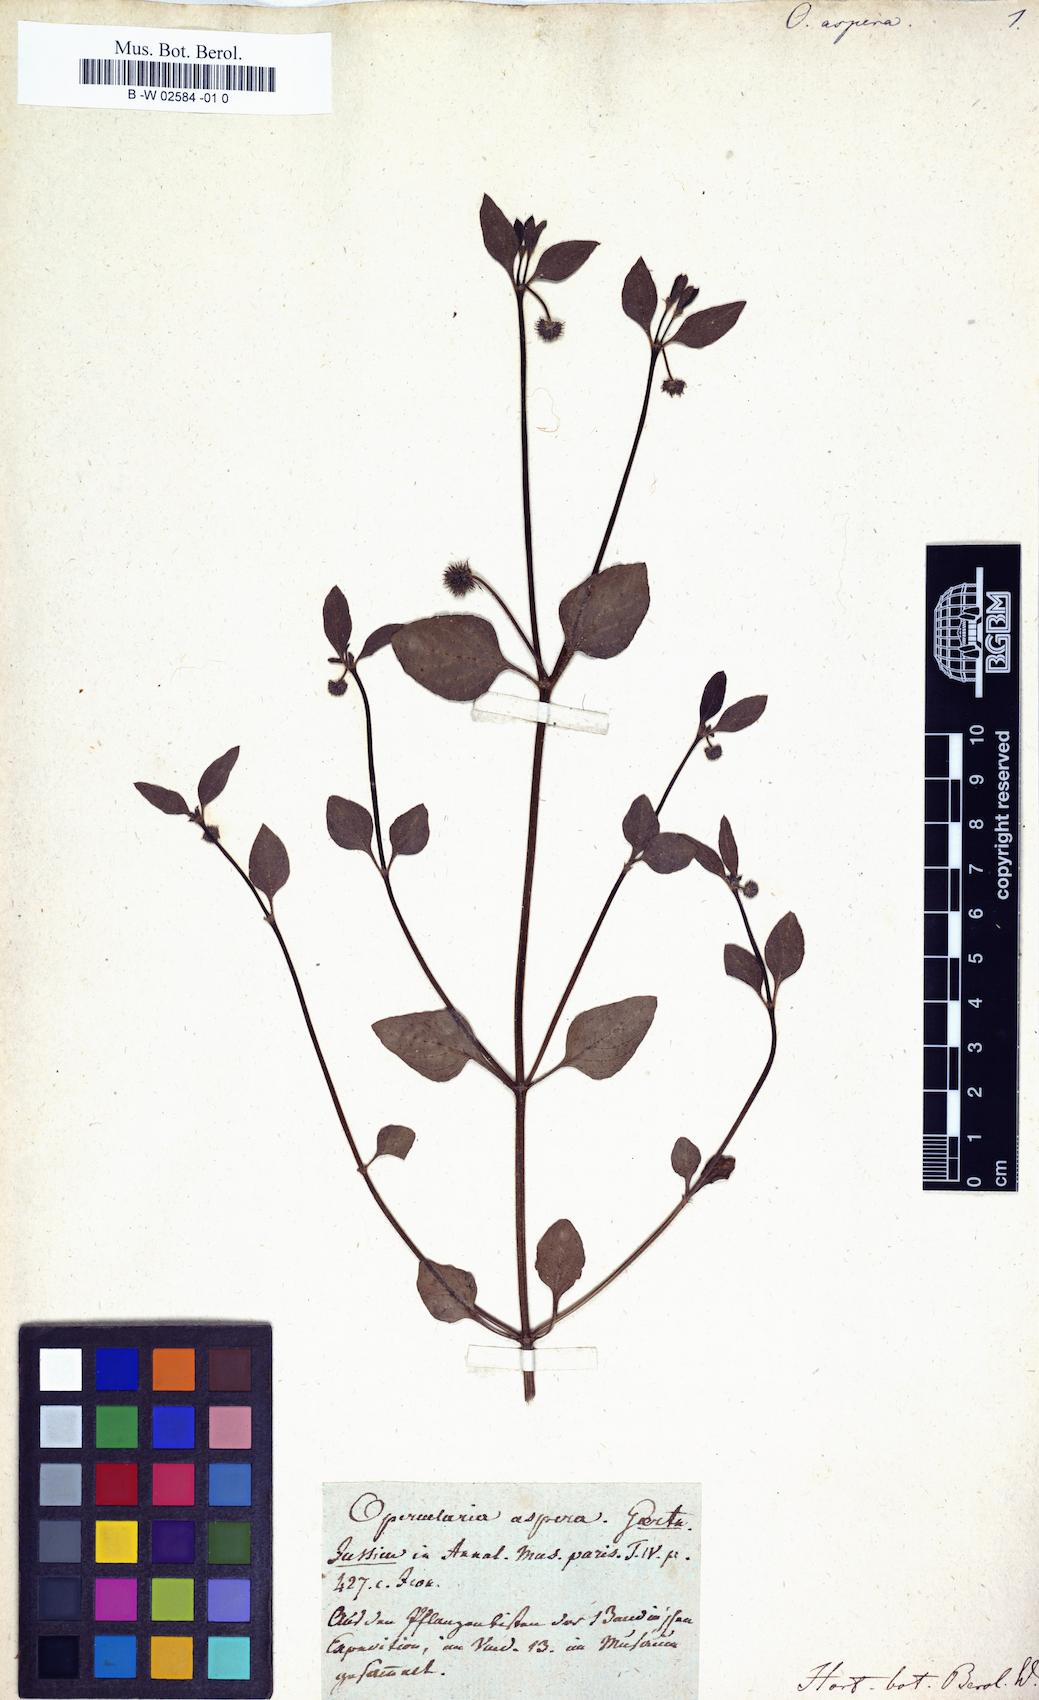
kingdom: Plantae
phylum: Tracheophyta
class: Magnoliopsida
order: Gentianales
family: Rubiaceae
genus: Opercularia
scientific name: Opercularia aspera
